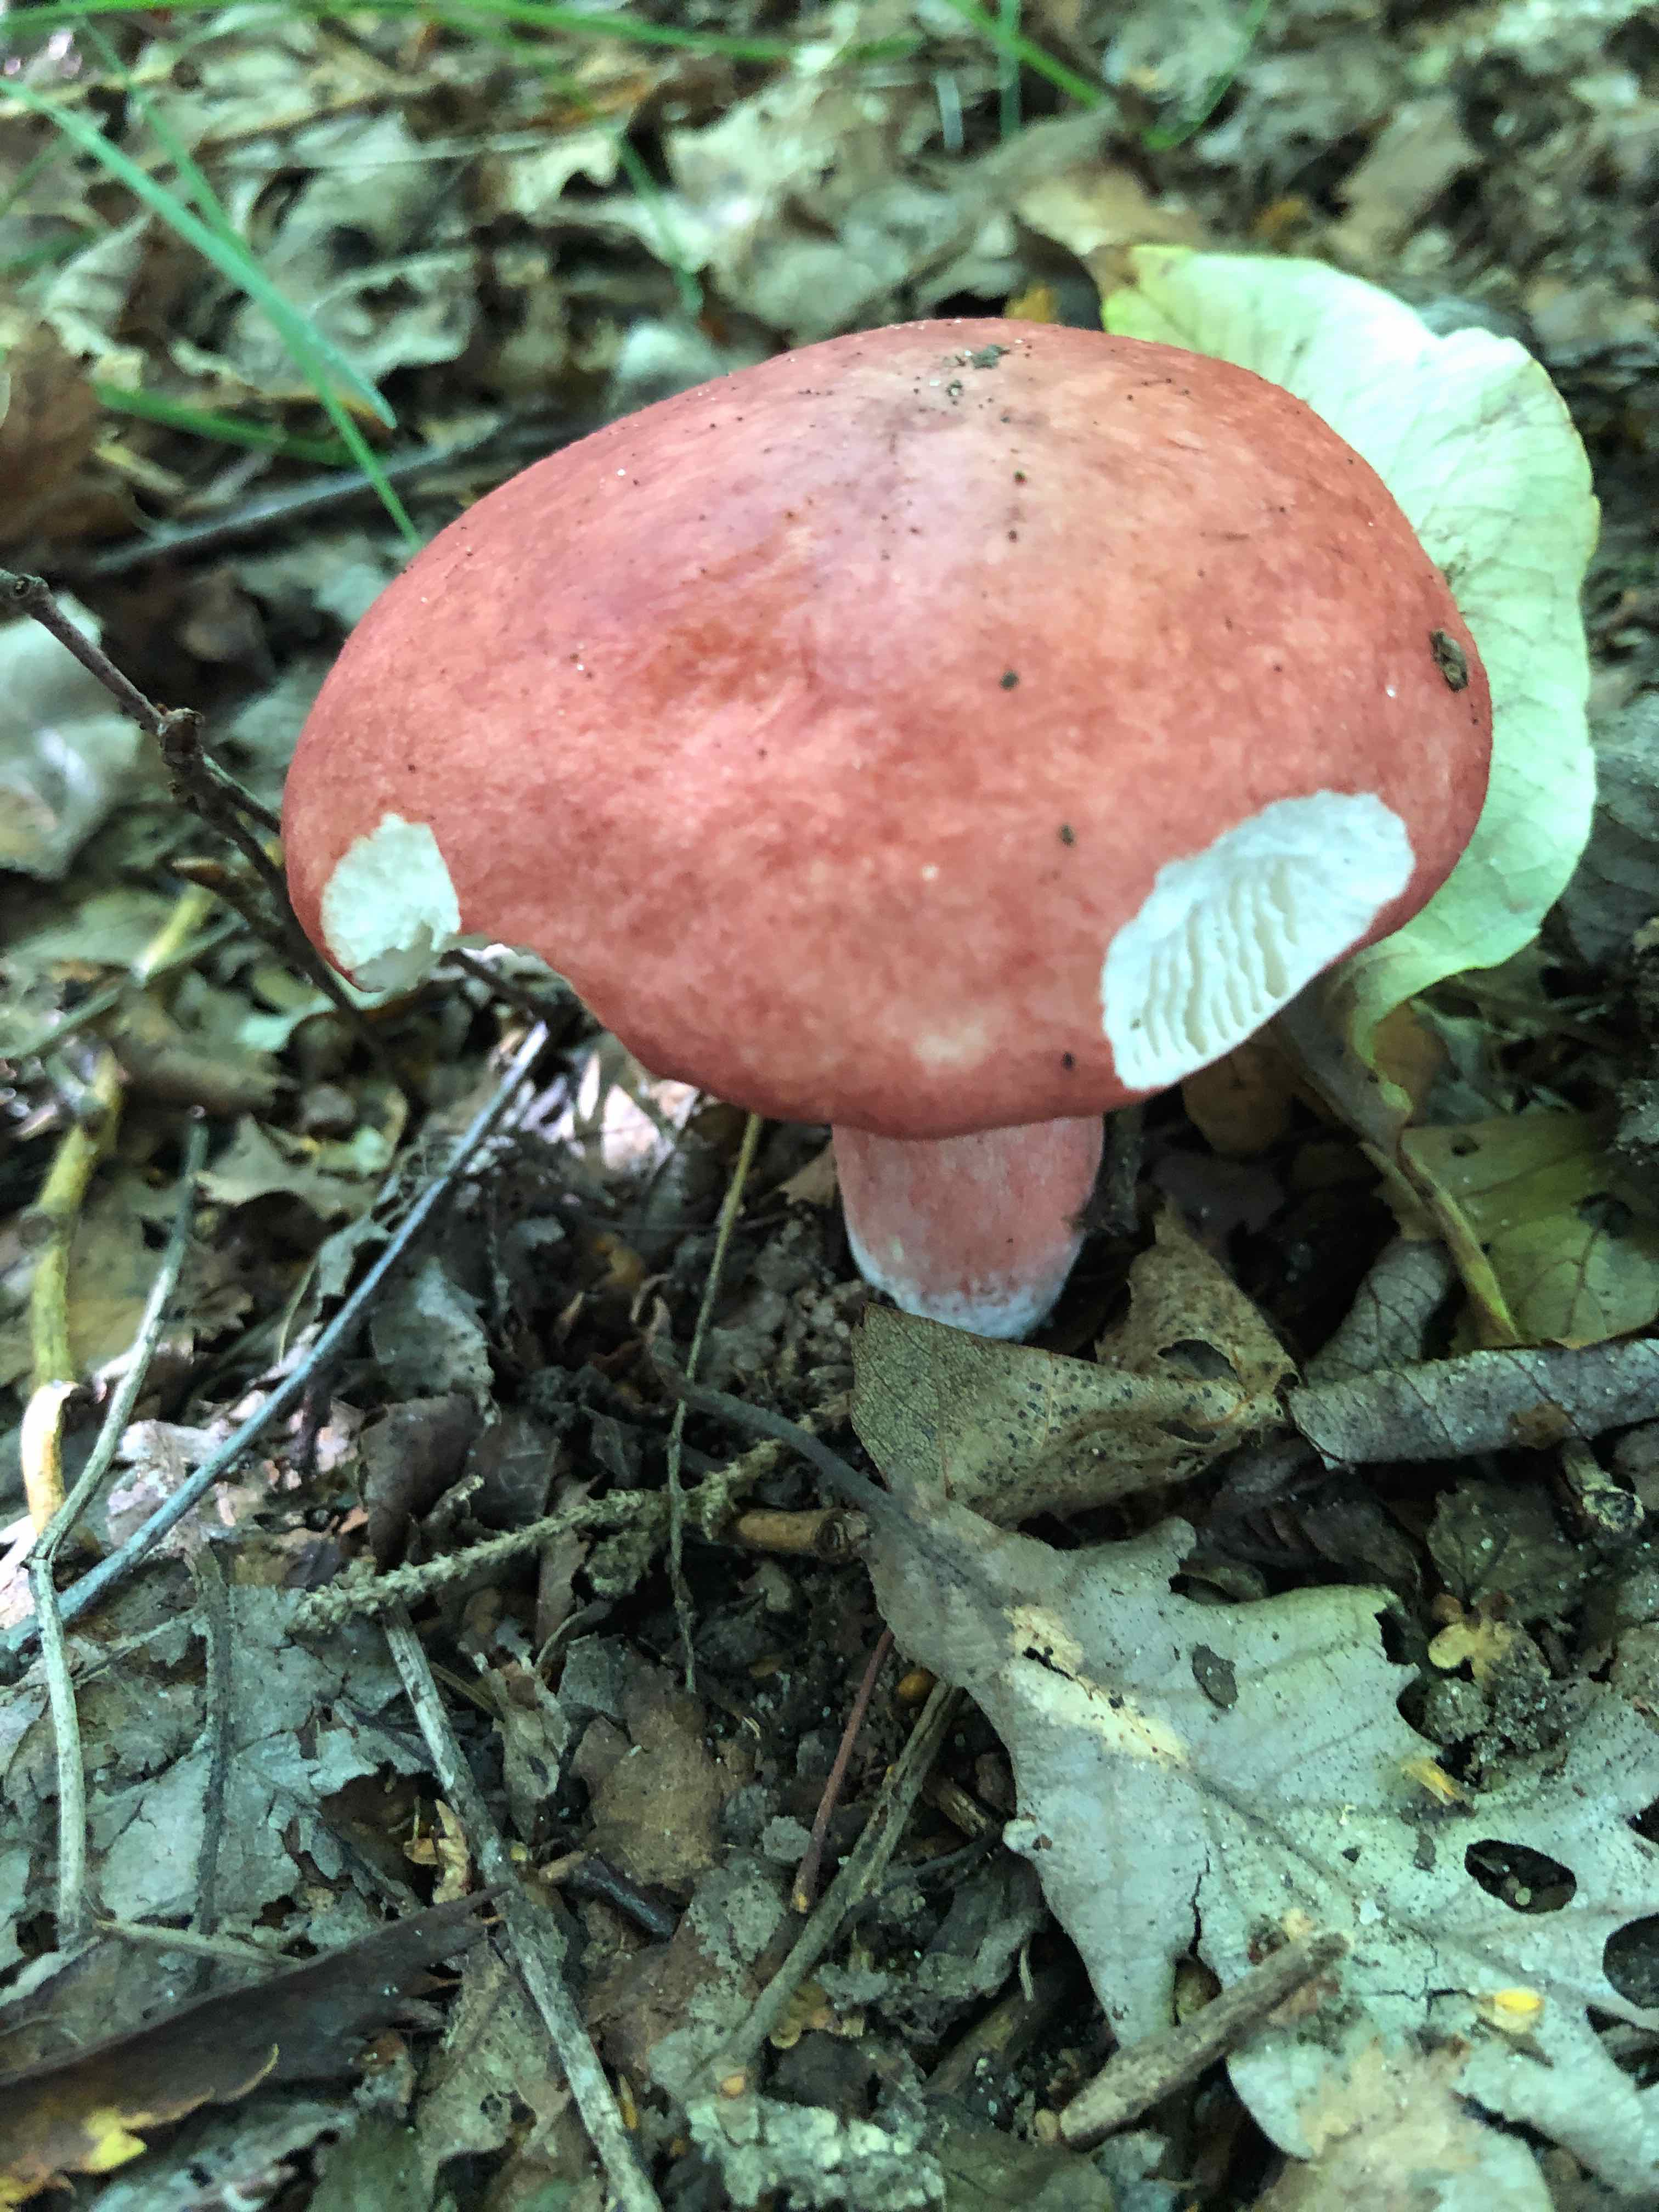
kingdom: Fungi
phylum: Basidiomycota
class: Agaricomycetes
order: Russulales
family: Russulaceae
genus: Russula
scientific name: Russula
